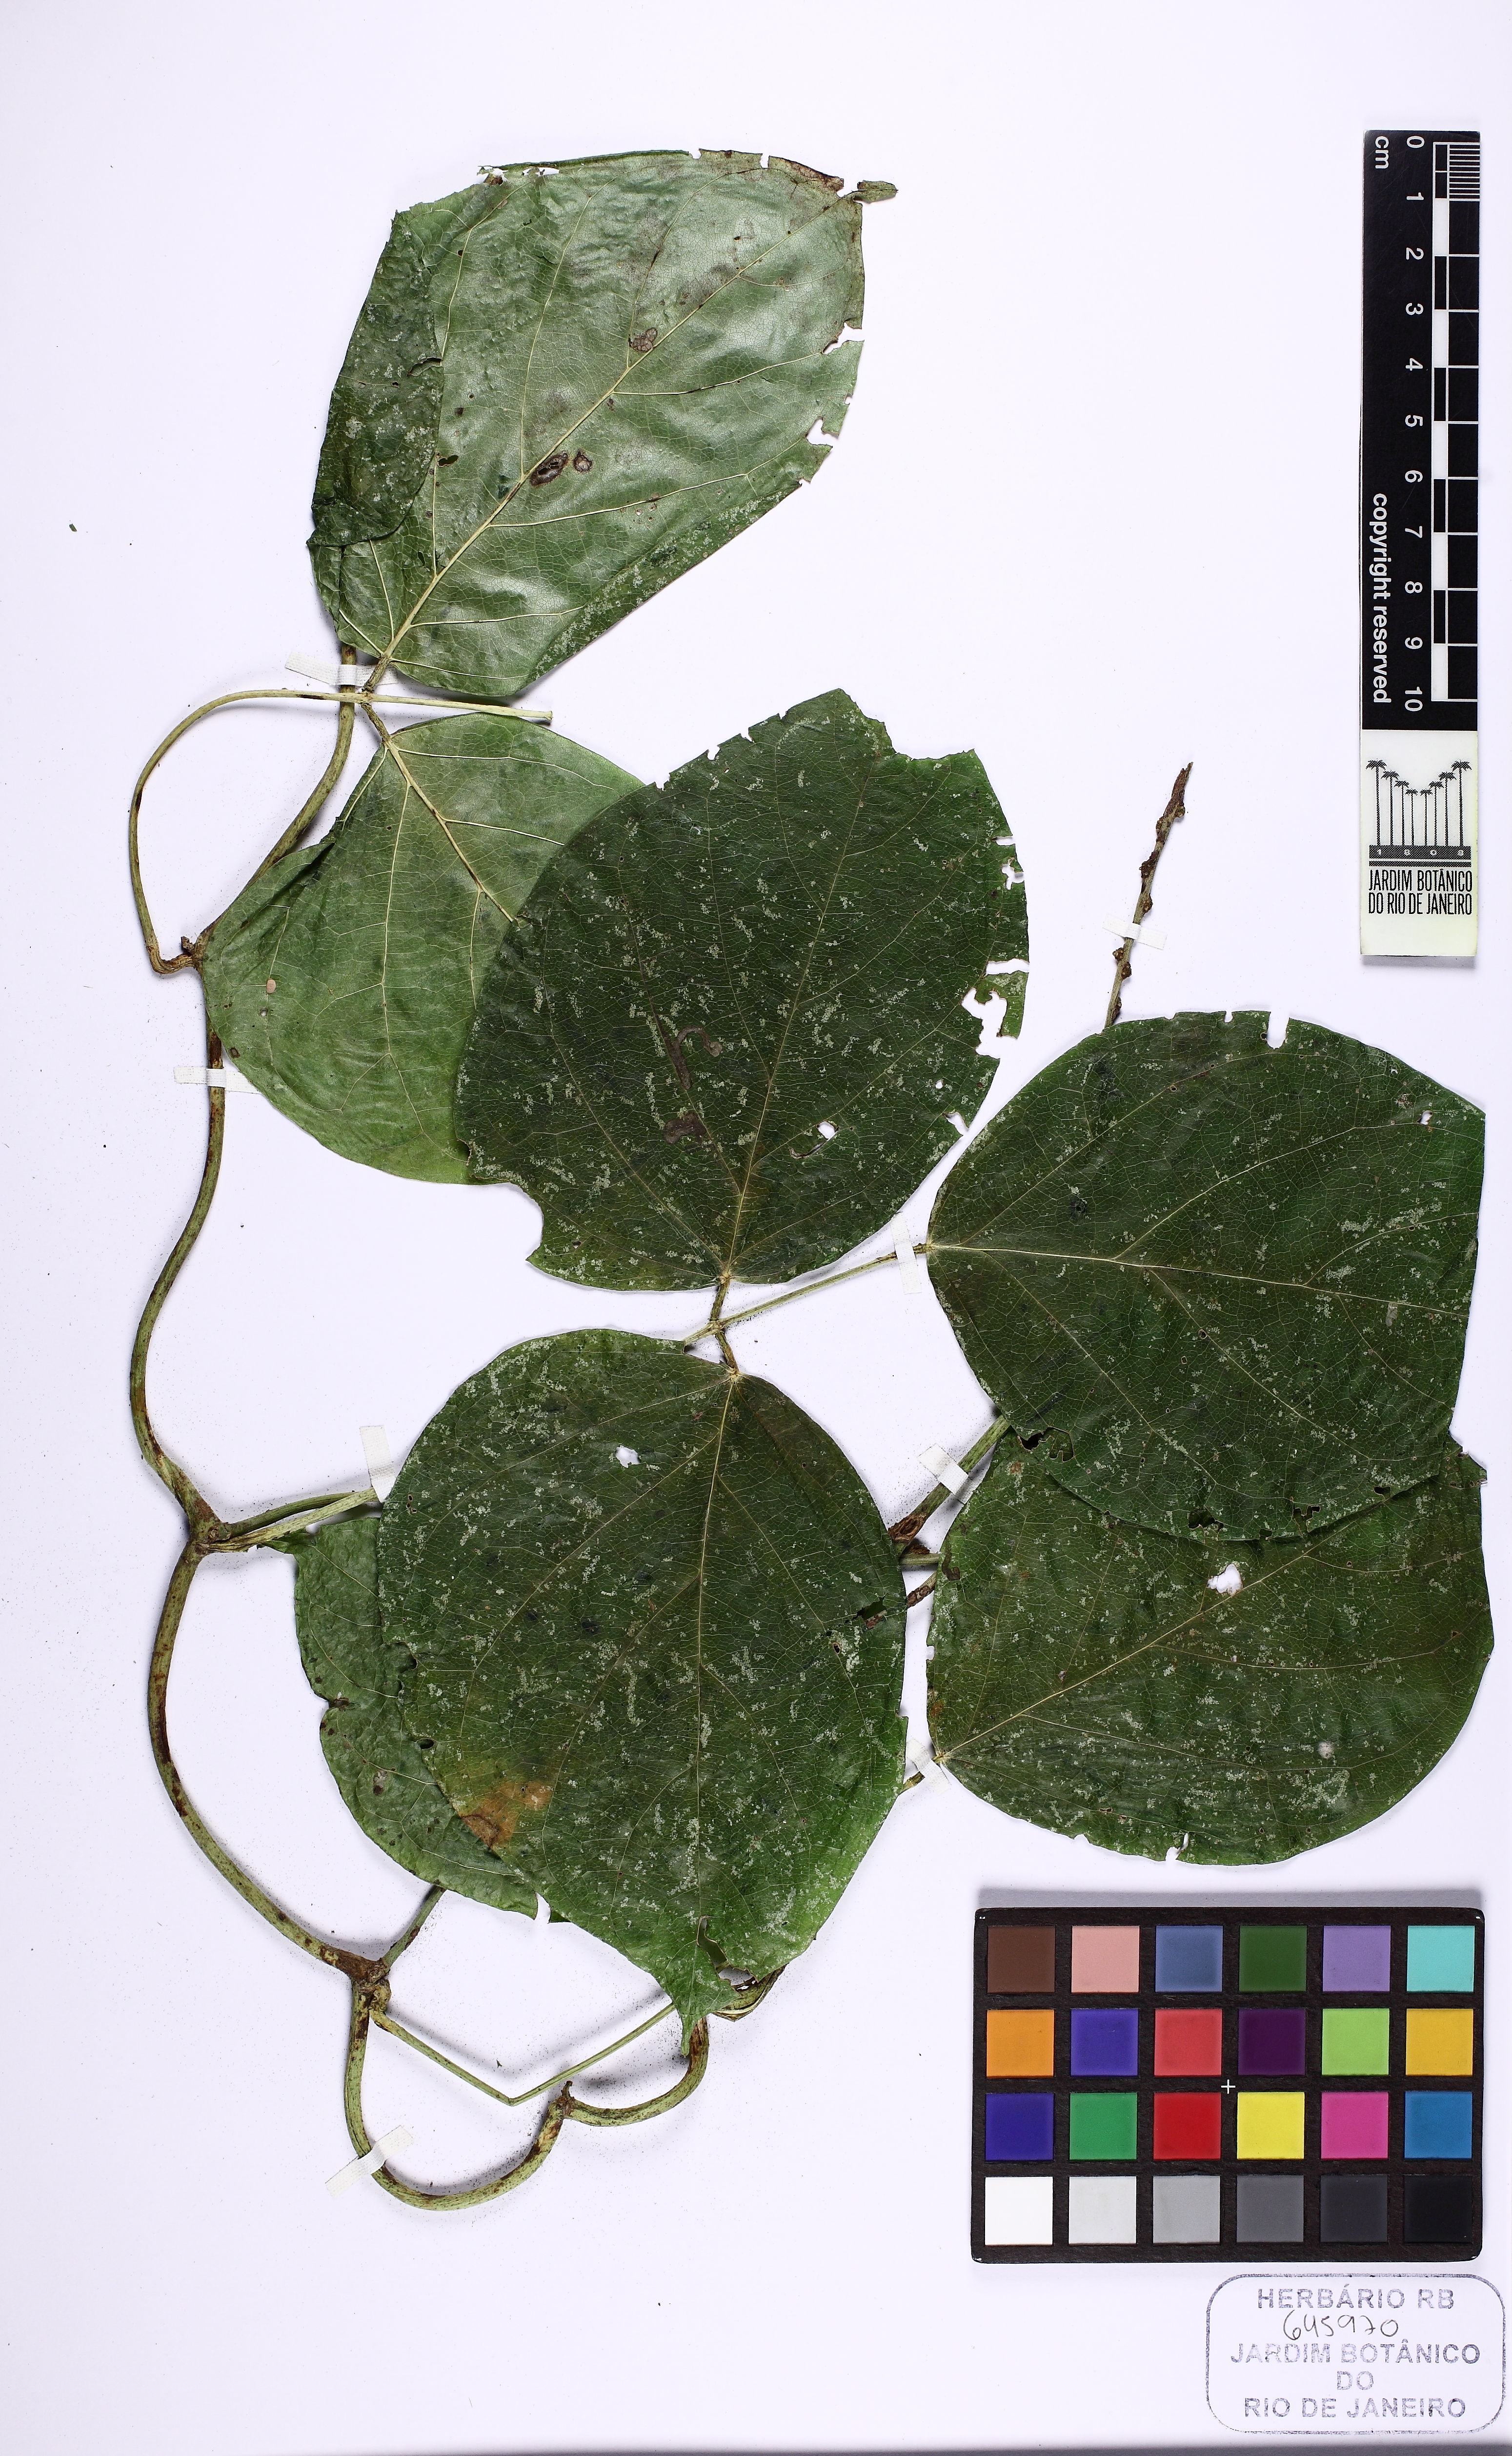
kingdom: Plantae
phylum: Tracheophyta
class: Magnoliopsida
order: Fabales
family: Fabaceae
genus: Canavalia
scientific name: Canavalia beniensis
